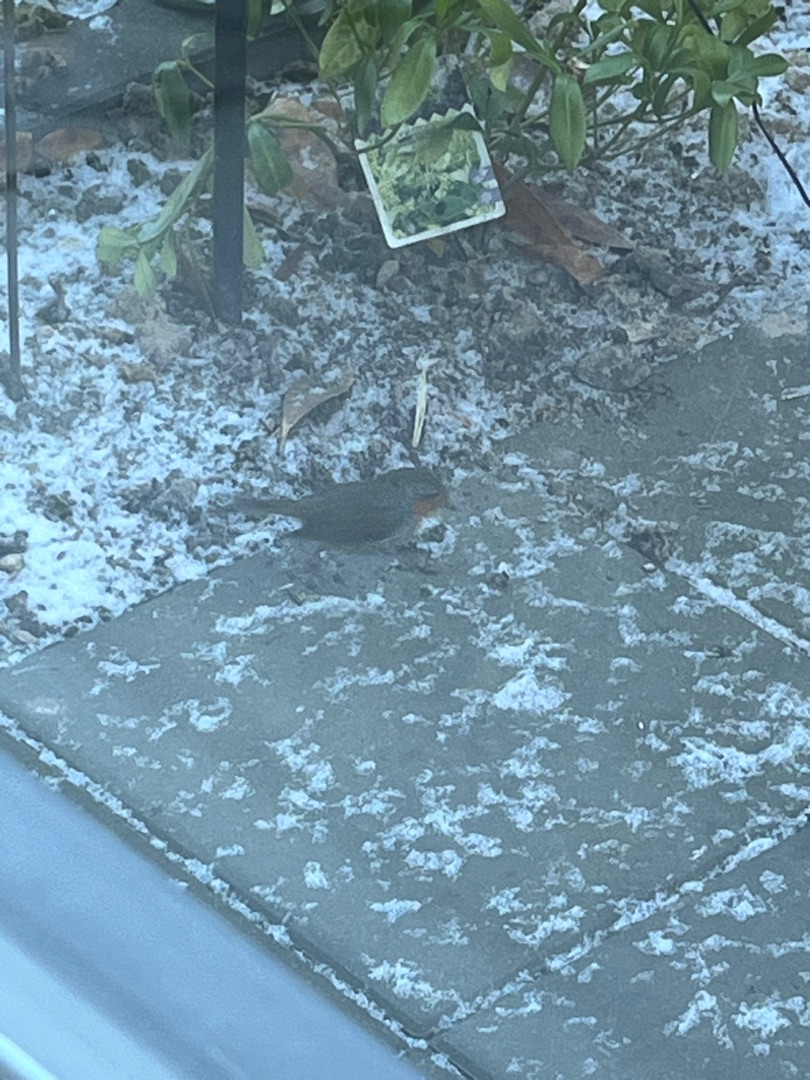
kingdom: Animalia
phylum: Chordata
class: Aves
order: Passeriformes
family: Muscicapidae
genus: Erithacus
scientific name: Erithacus rubecula
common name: Rødhals/rødkælk
